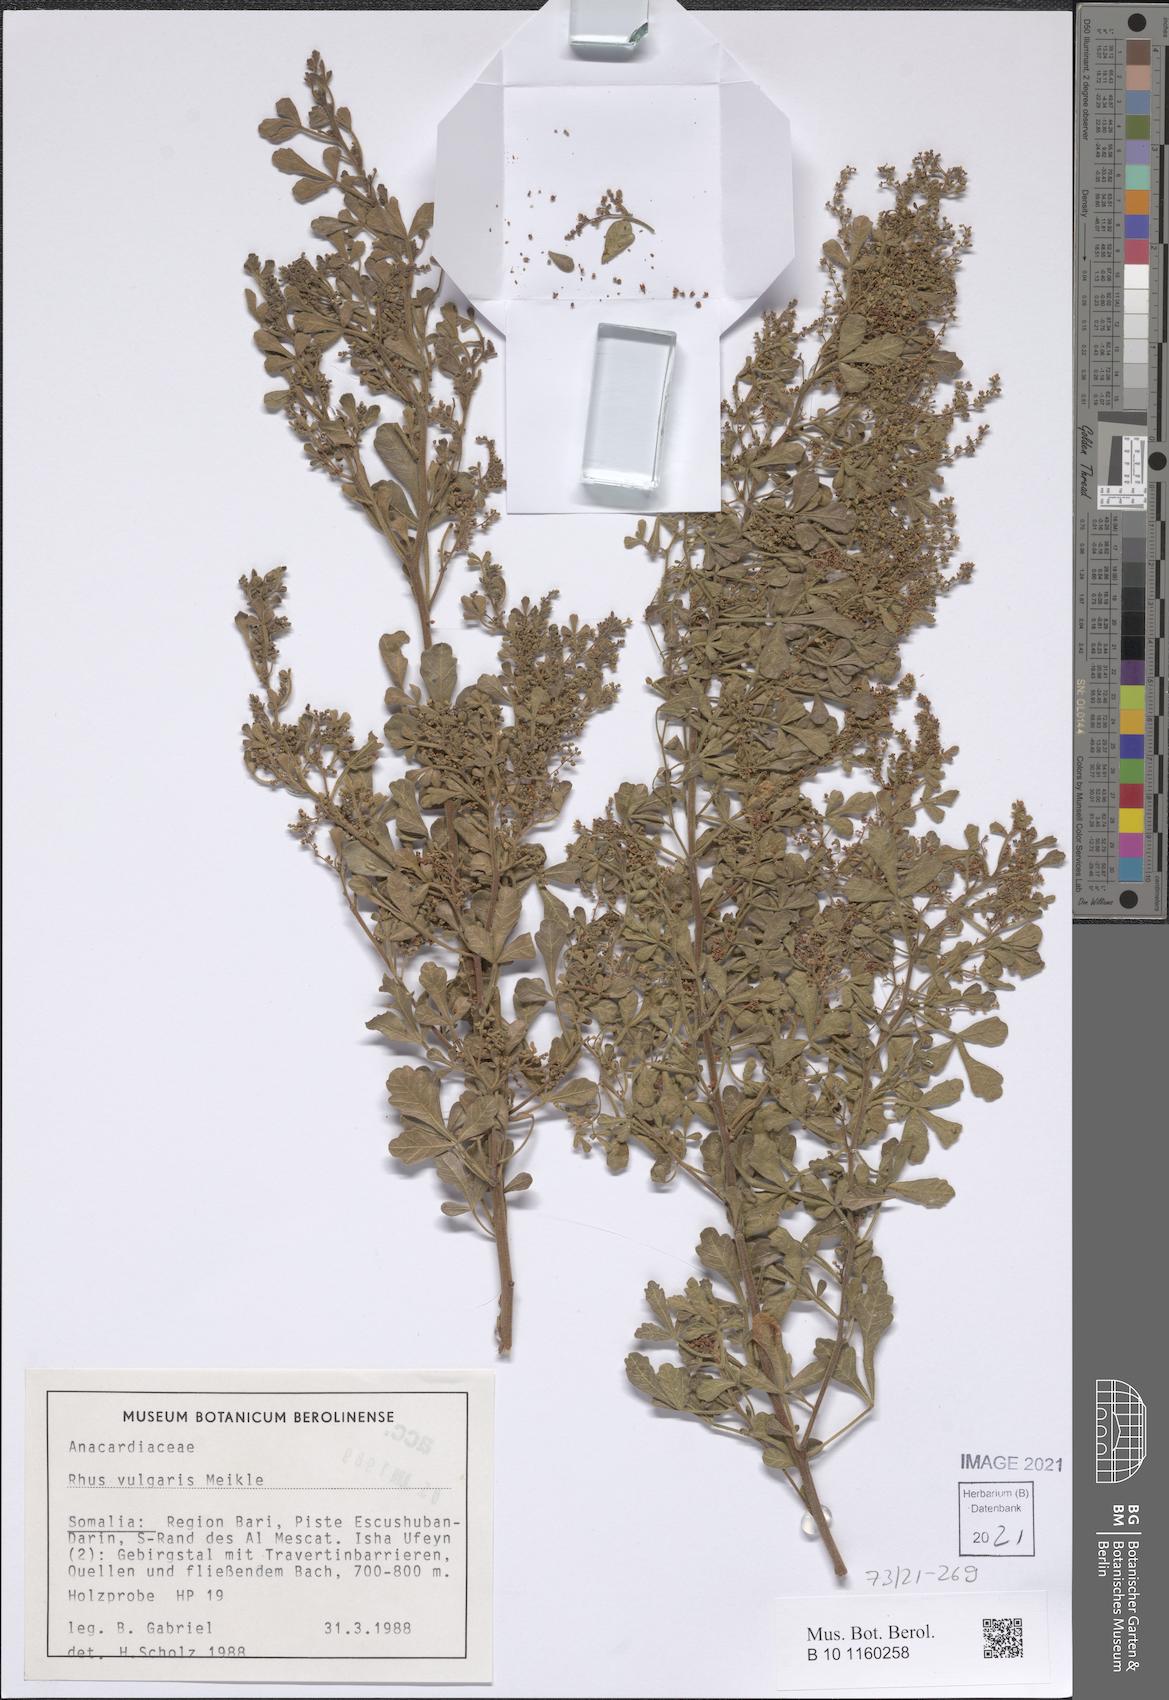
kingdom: Plantae
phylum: Tracheophyta
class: Magnoliopsida
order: Sapindales
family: Anacardiaceae
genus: Searsia
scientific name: Searsia pyroides
